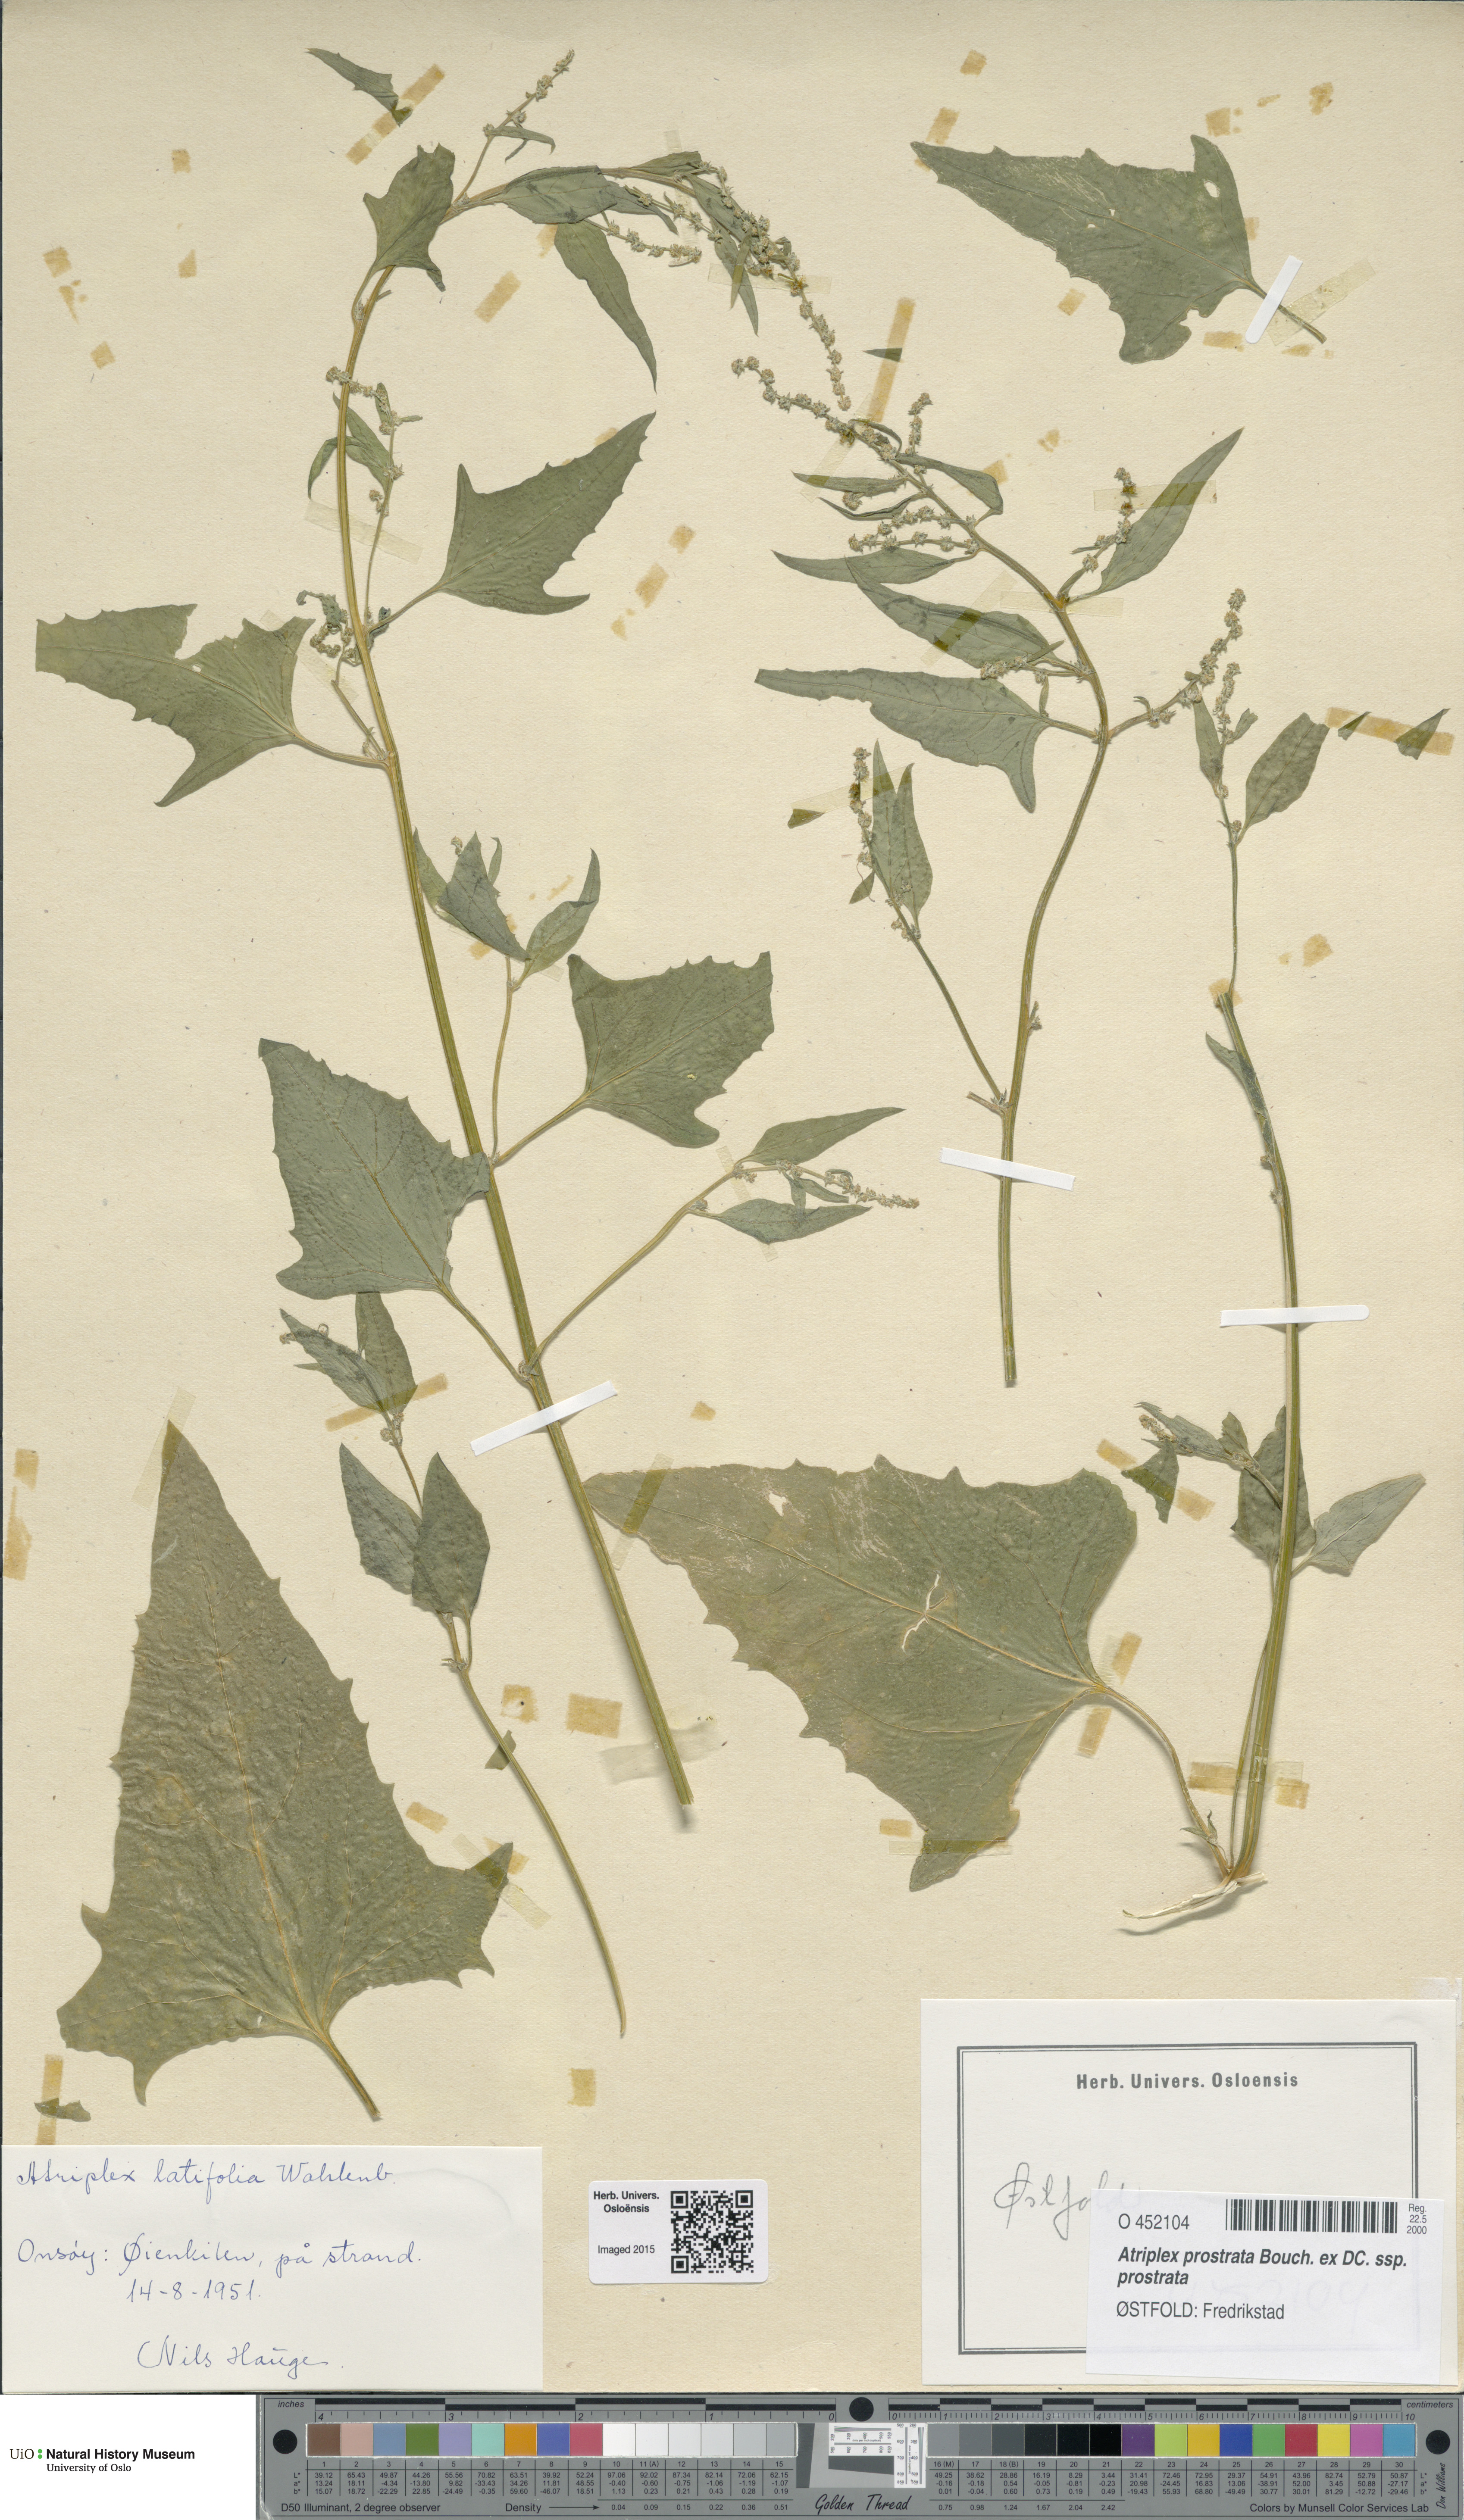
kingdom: Plantae
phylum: Tracheophyta
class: Magnoliopsida
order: Caryophyllales
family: Amaranthaceae
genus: Atriplex
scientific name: Atriplex prostrata
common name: Spear-leaved orache
